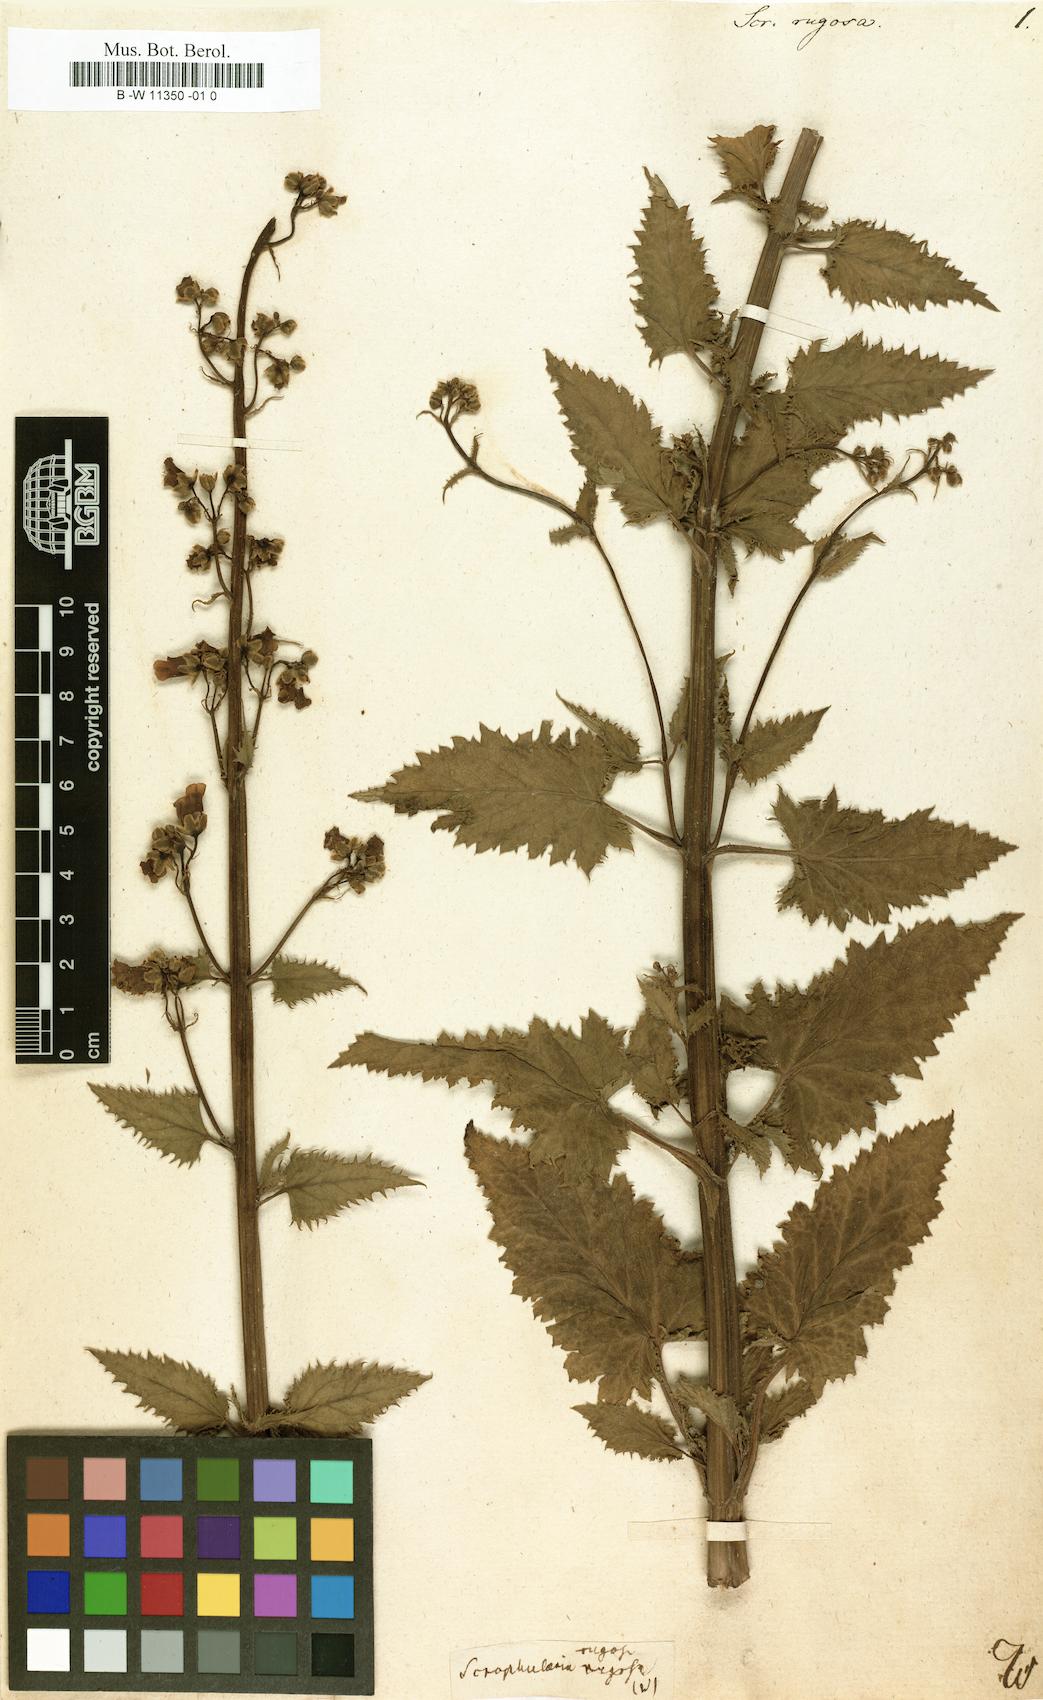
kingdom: Plantae
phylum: Tracheophyta
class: Magnoliopsida
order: Lamiales
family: Scrophulariaceae
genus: Scrophularia
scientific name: Scrophularia
